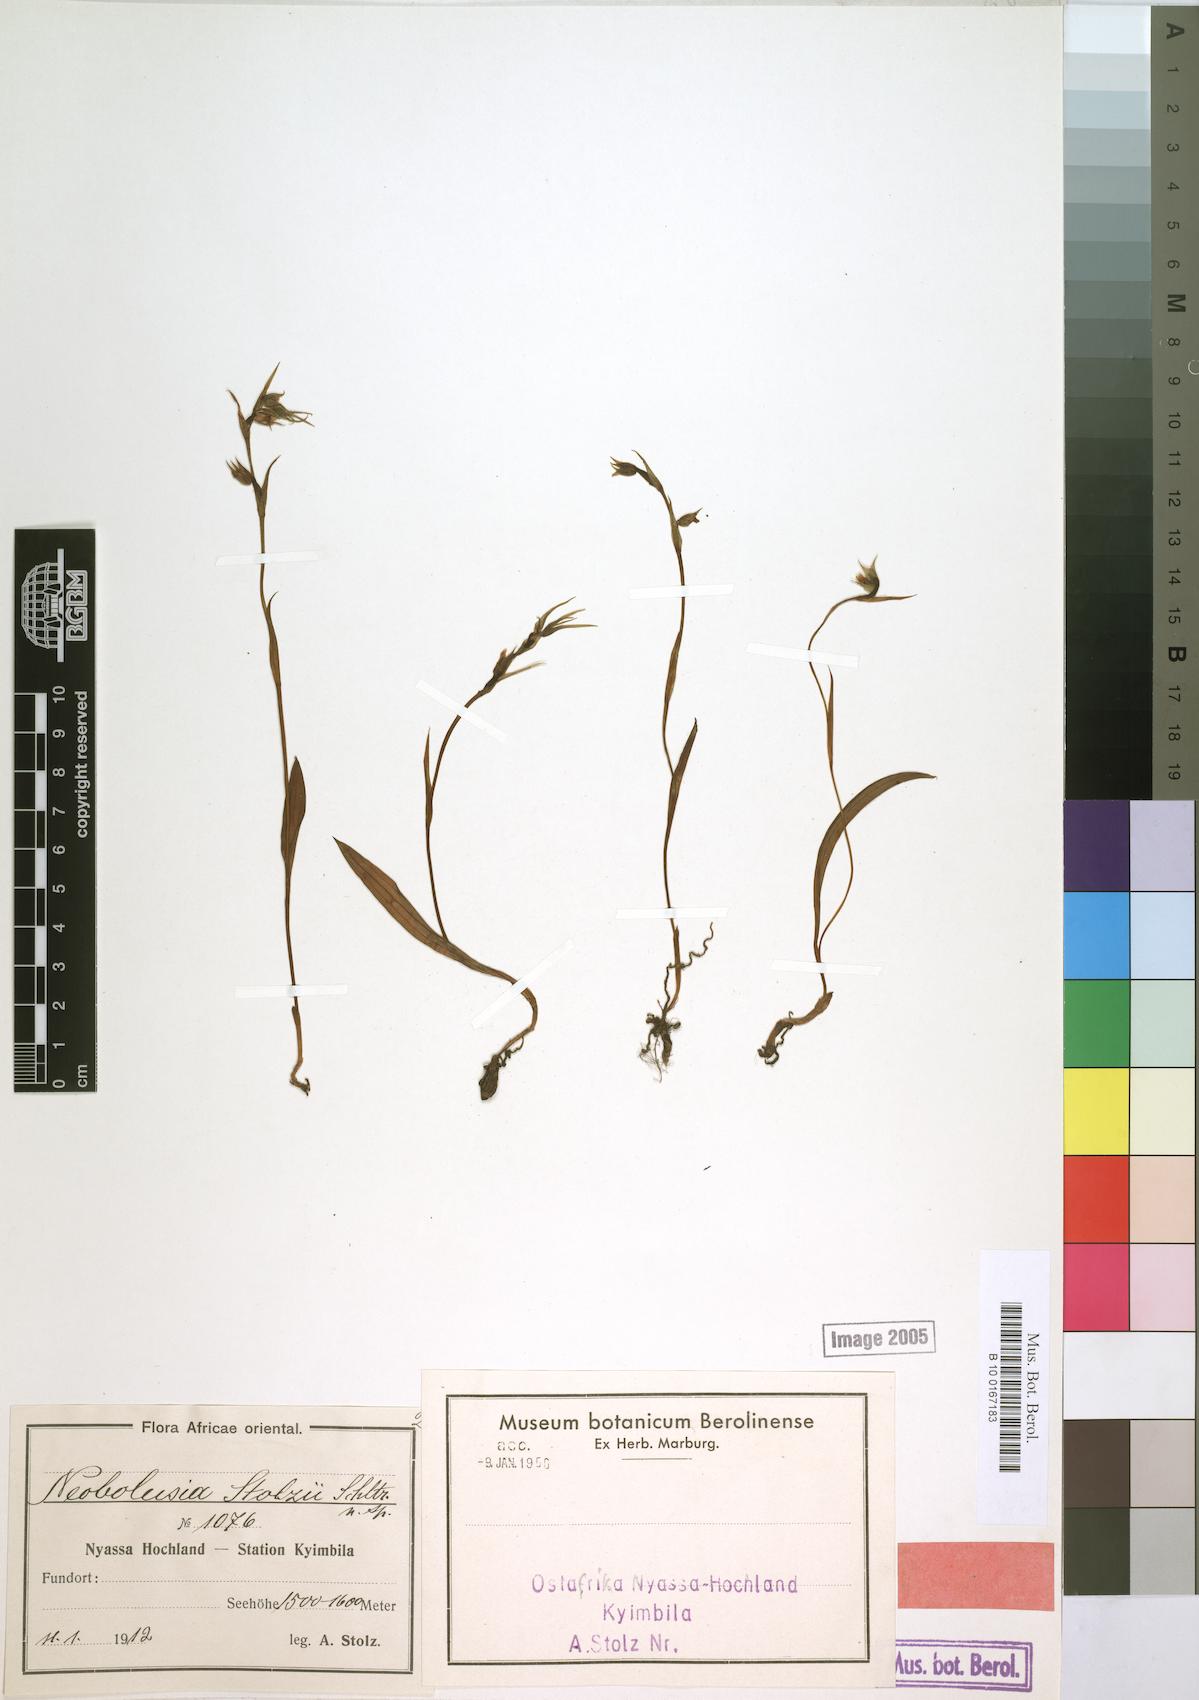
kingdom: Plantae
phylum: Tracheophyta
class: Liliopsida
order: Asparagales
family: Orchidaceae
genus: Neobolusia
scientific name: Neobolusia stolzii
